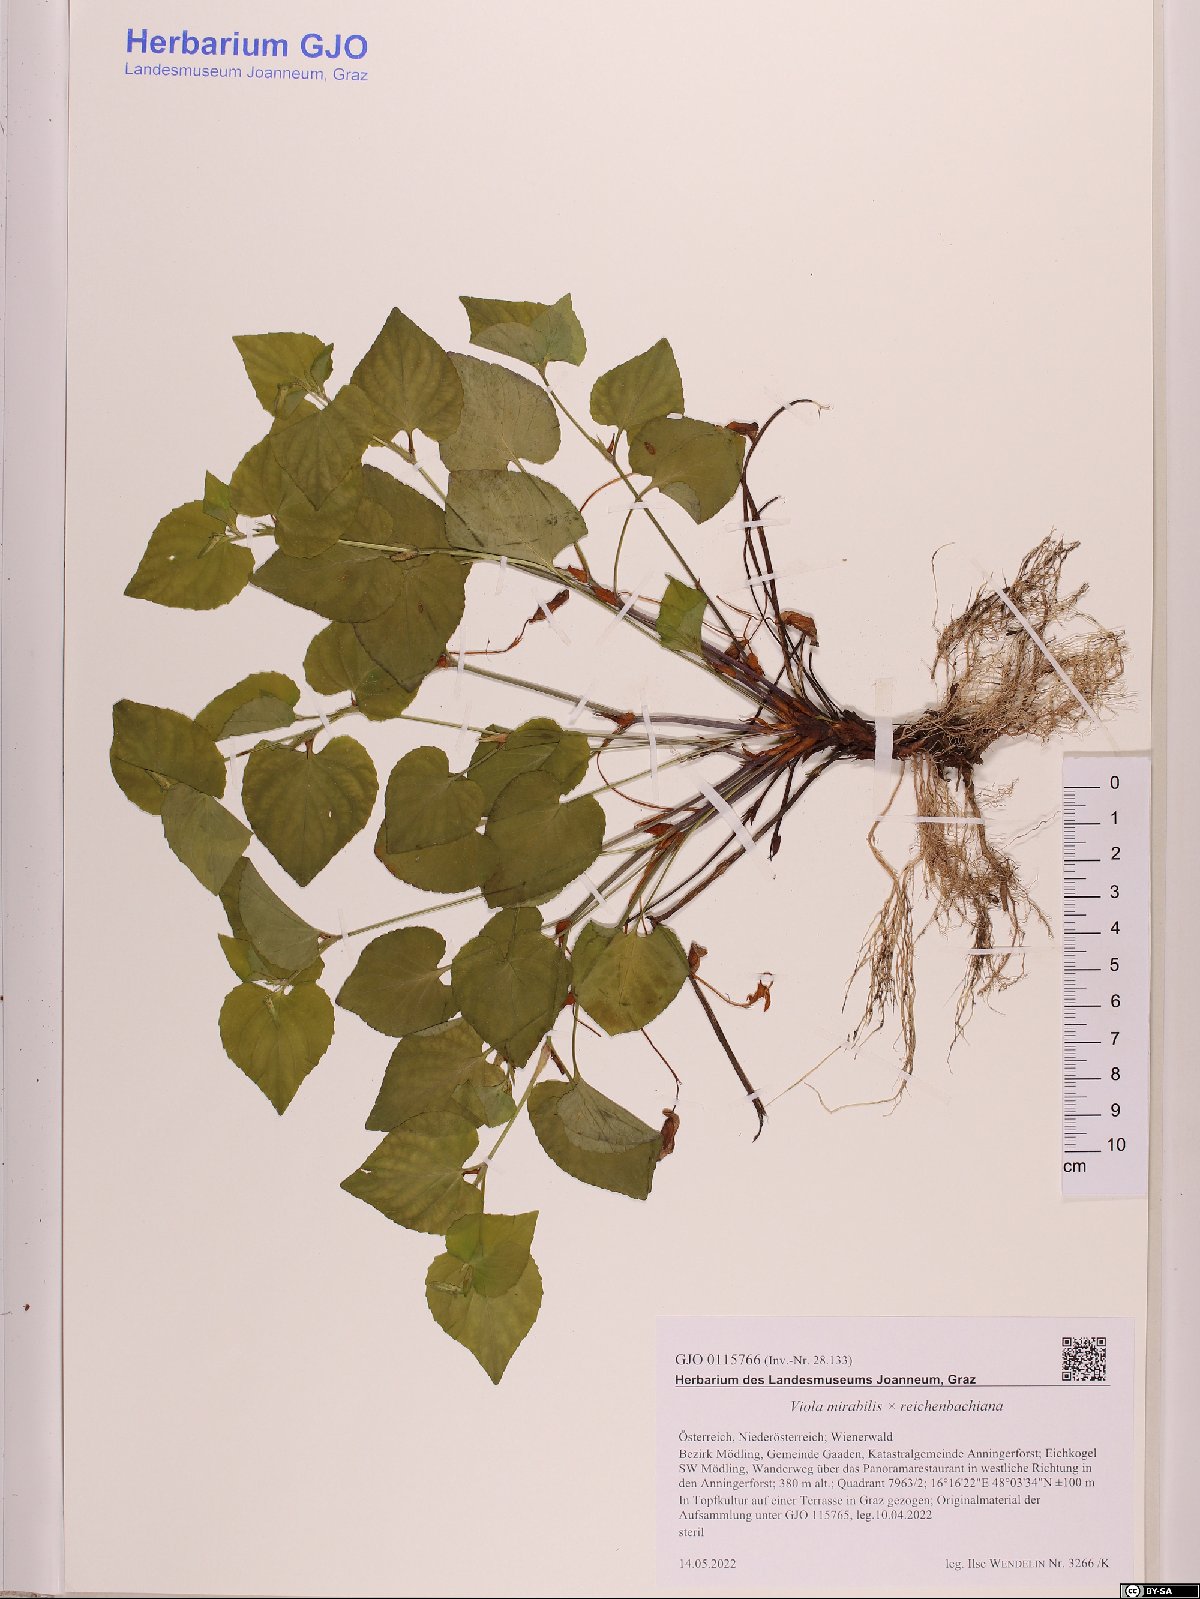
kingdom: Plantae
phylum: Tracheophyta
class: Magnoliopsida
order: Malpighiales
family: Violaceae
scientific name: Violaceae
